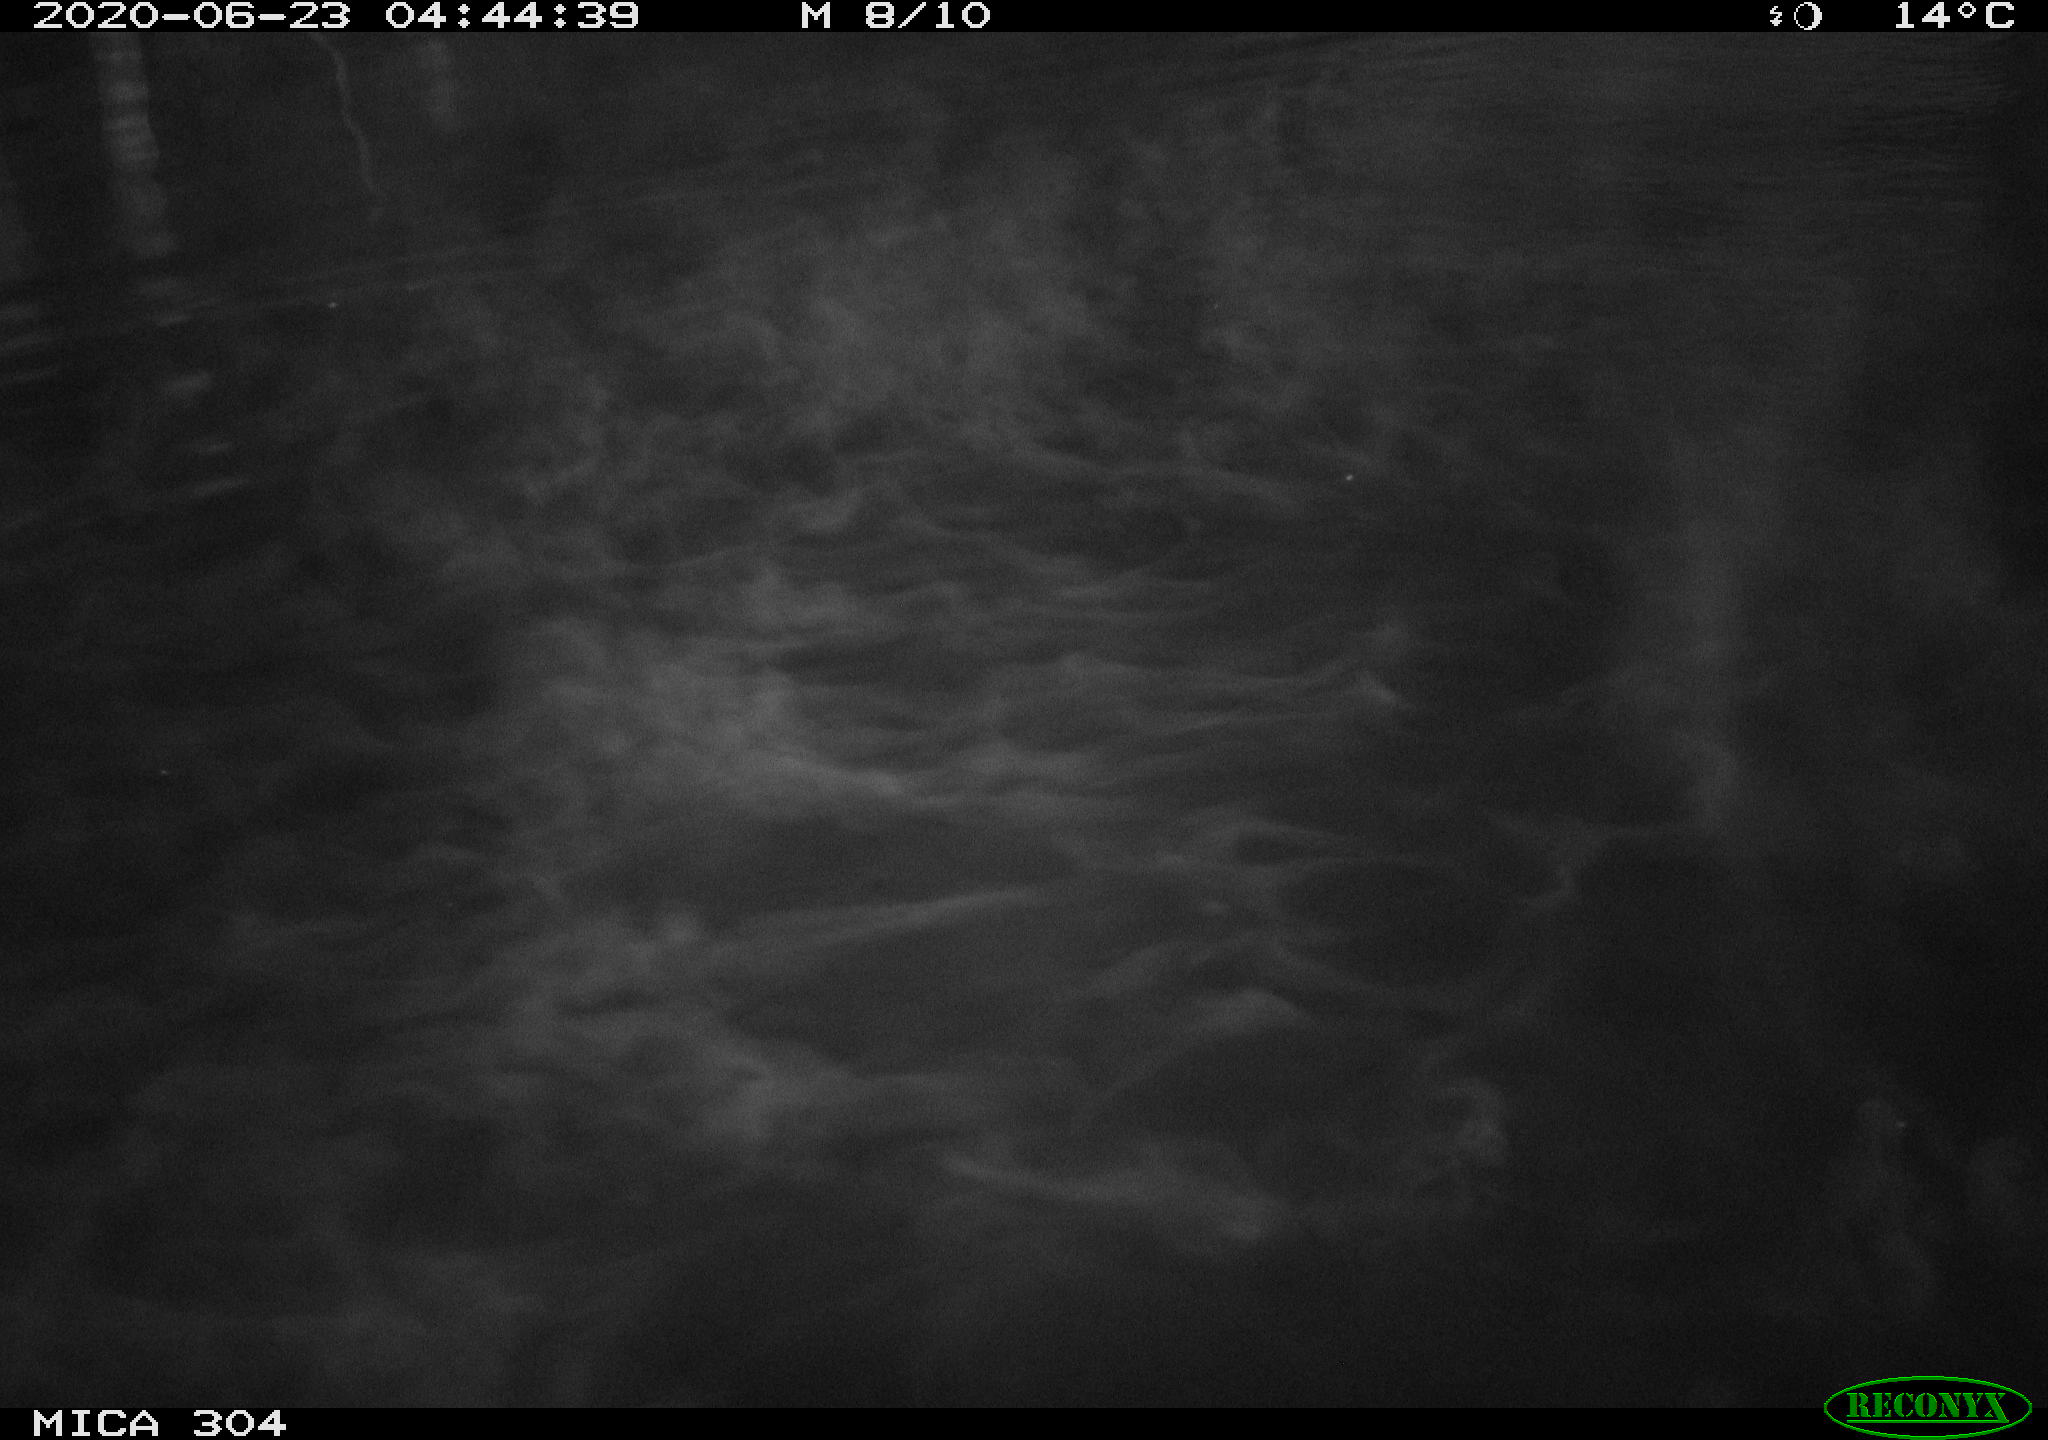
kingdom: Animalia
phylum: Chordata
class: Aves
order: Anseriformes
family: Anatidae
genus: Anas
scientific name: Anas platyrhynchos
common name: Mallard
